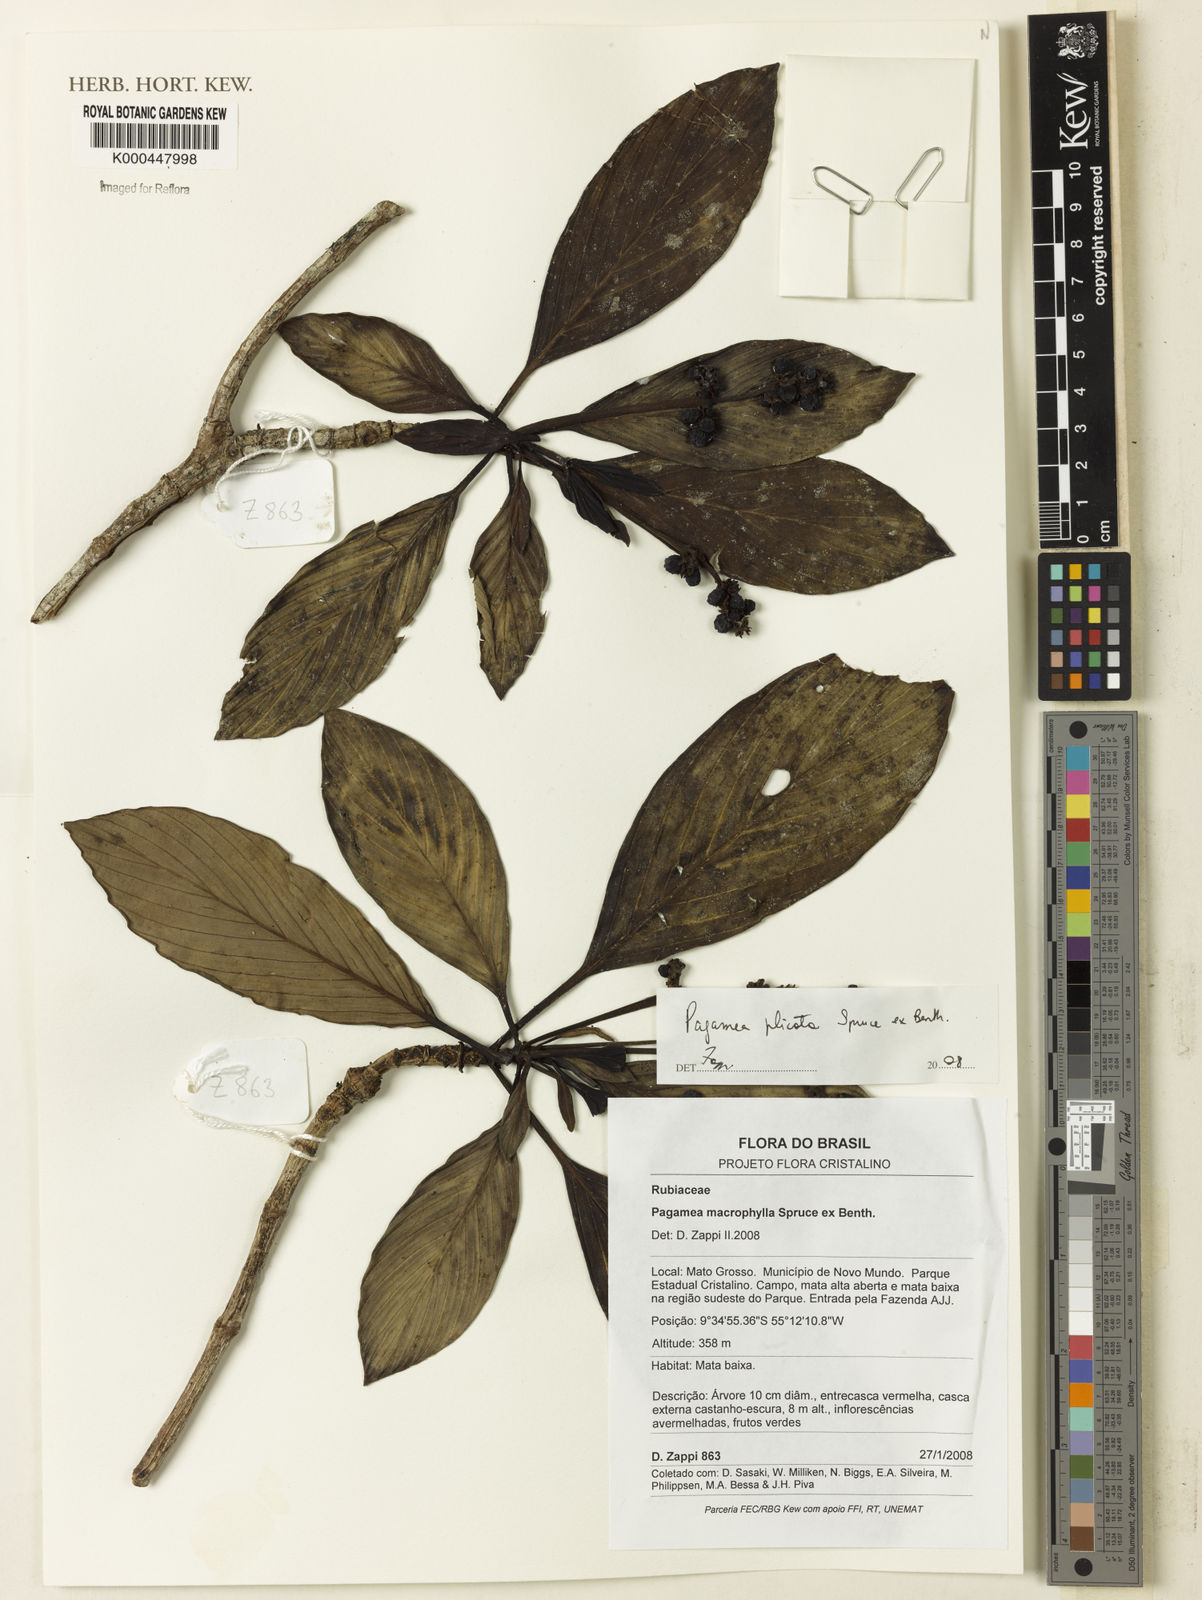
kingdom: Plantae
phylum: Tracheophyta
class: Magnoliopsida
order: Gentianales
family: Rubiaceae
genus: Pagamea
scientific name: Pagamea plicata
